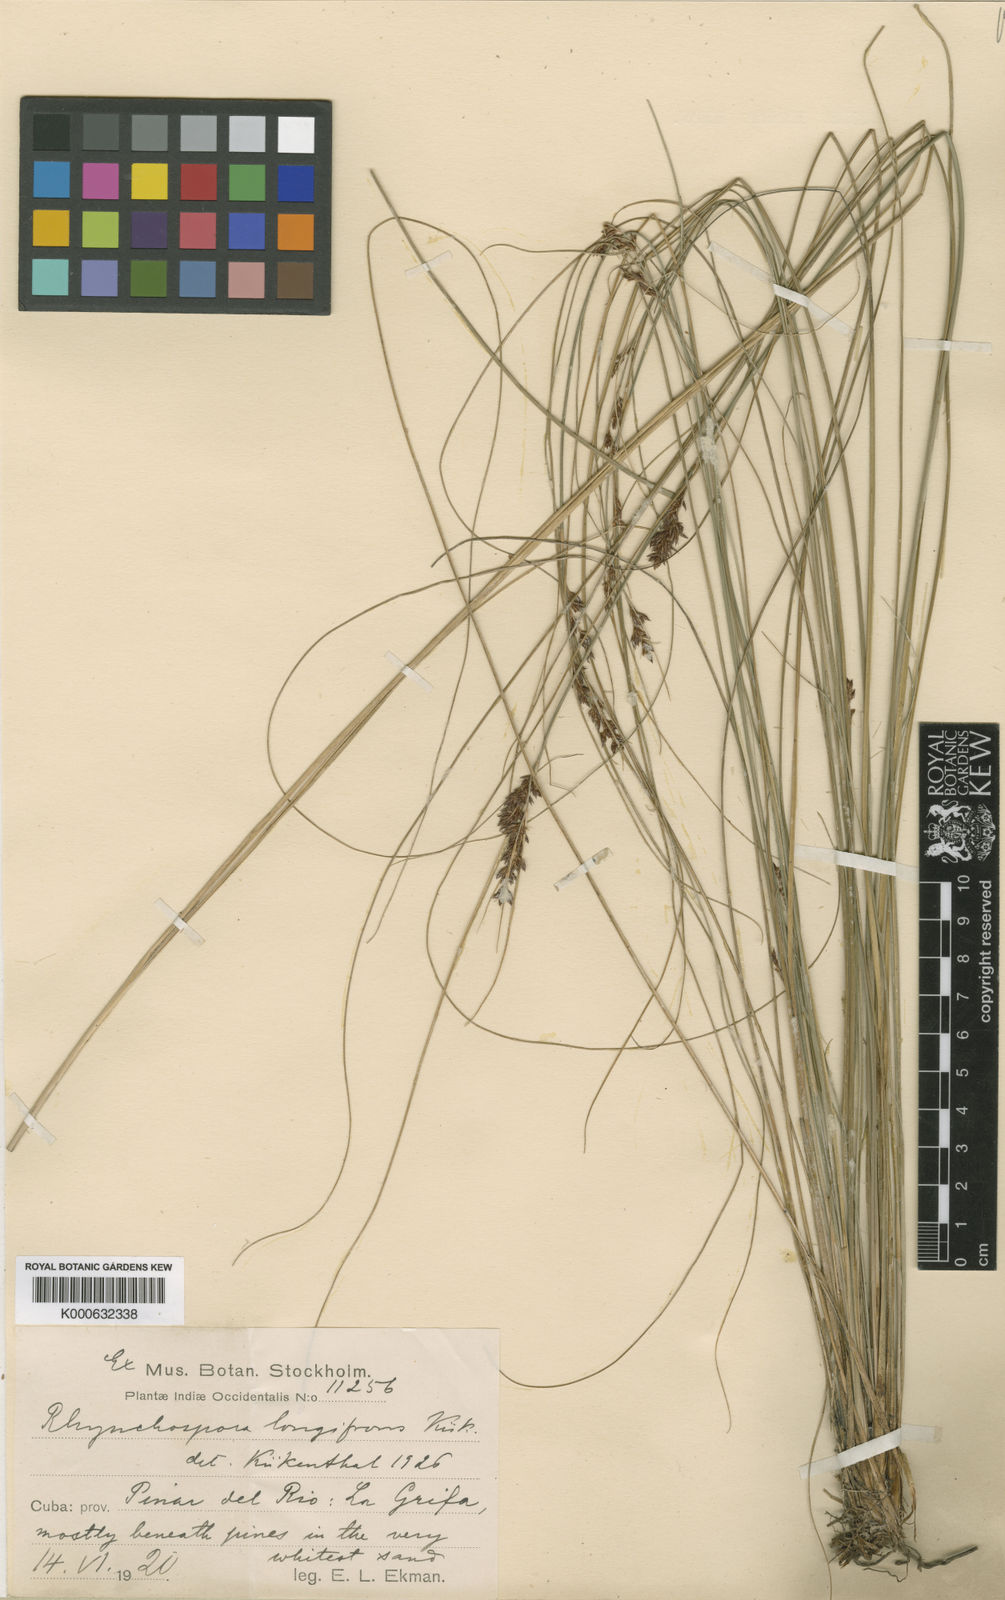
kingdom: Plantae
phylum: Tracheophyta
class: Liliopsida
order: Poales
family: Cyperaceae
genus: Rhynchospora
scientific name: Rhynchospora
